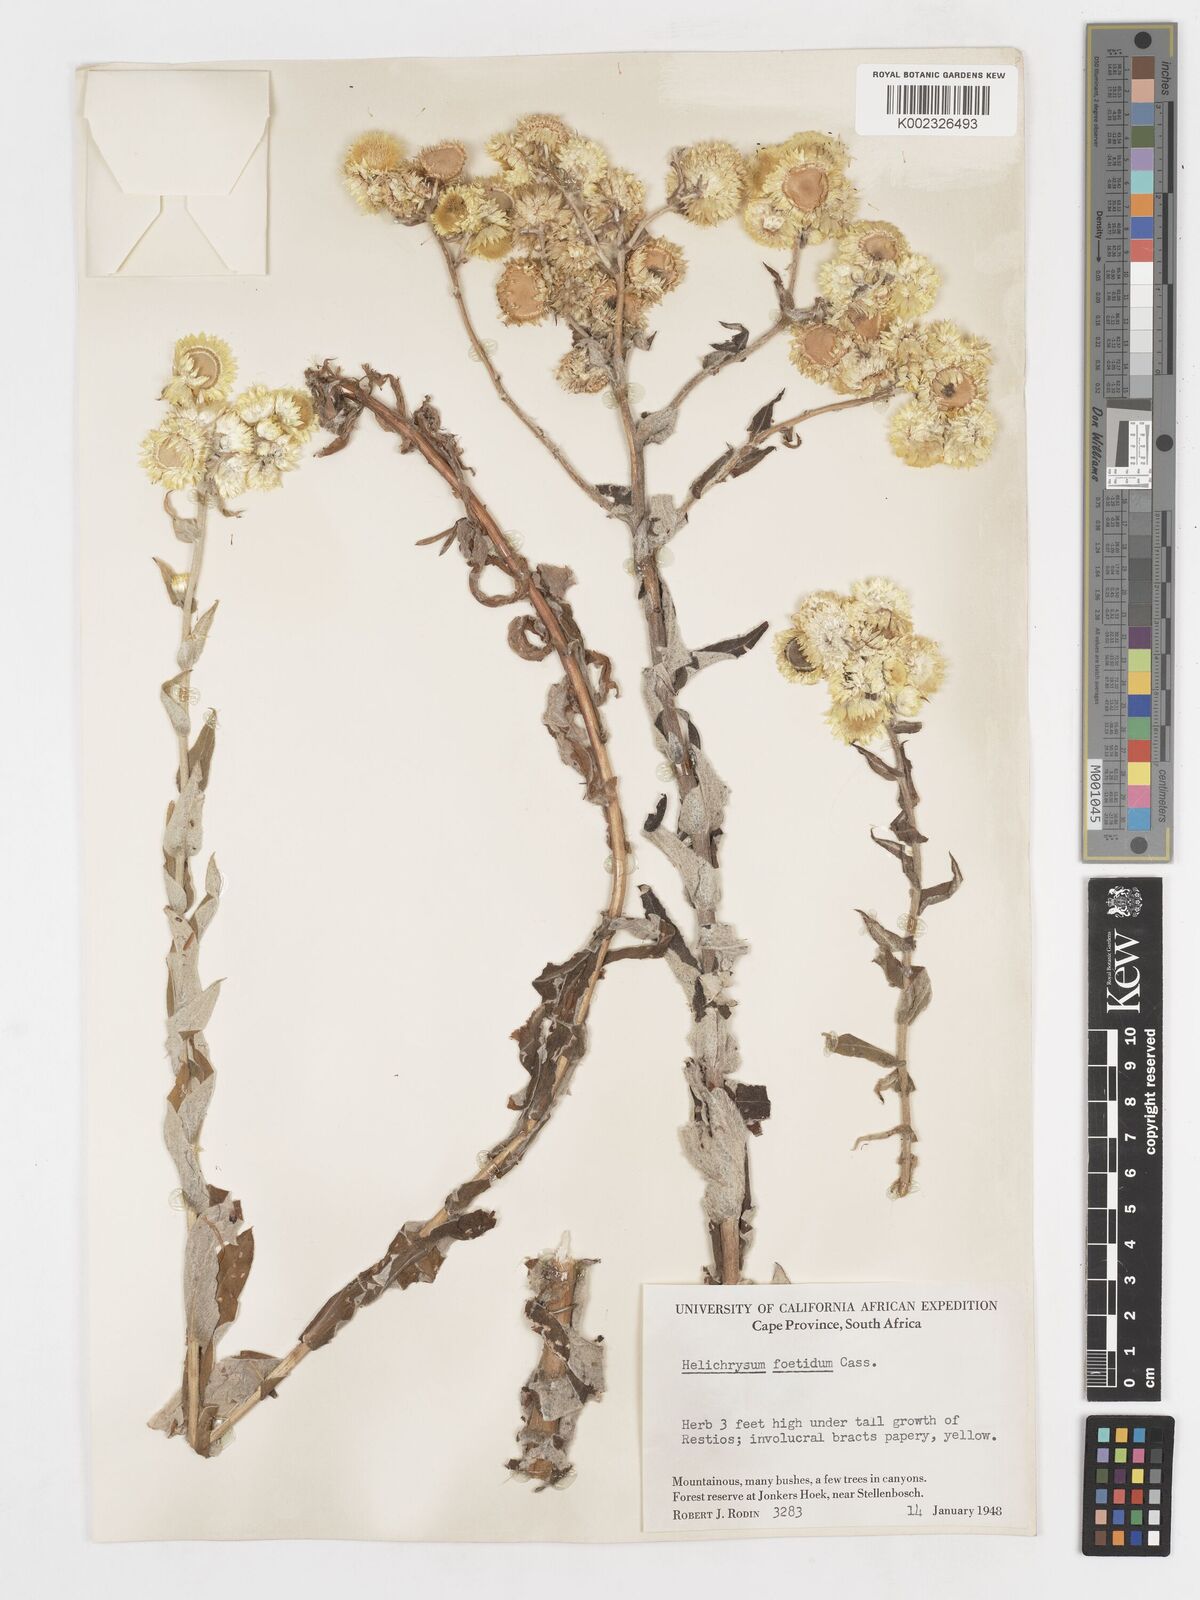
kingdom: Plantae
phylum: Tracheophyta
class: Magnoliopsida
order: Asterales
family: Asteraceae
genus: Helichrysum
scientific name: Helichrysum foetidum
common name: Stinking everlasting
